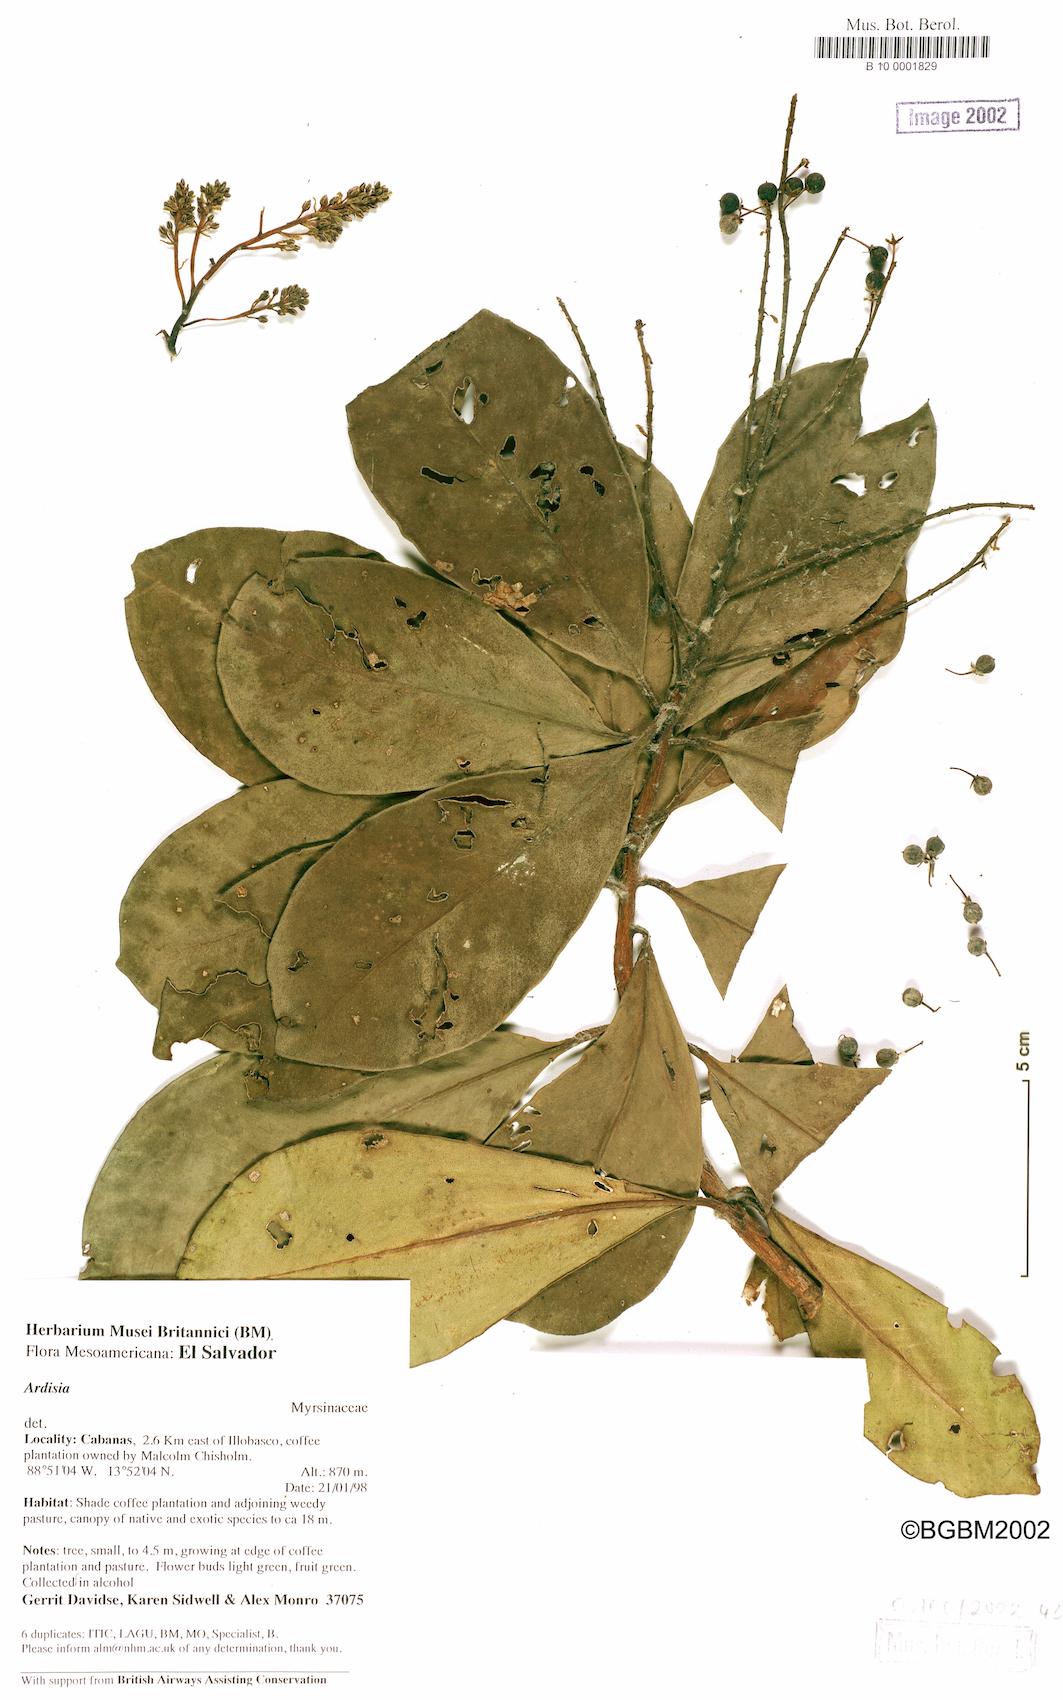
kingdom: Plantae
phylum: Tracheophyta
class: Magnoliopsida
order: Ericales
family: Primulaceae
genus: Ardisia
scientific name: Ardisia revoluta
